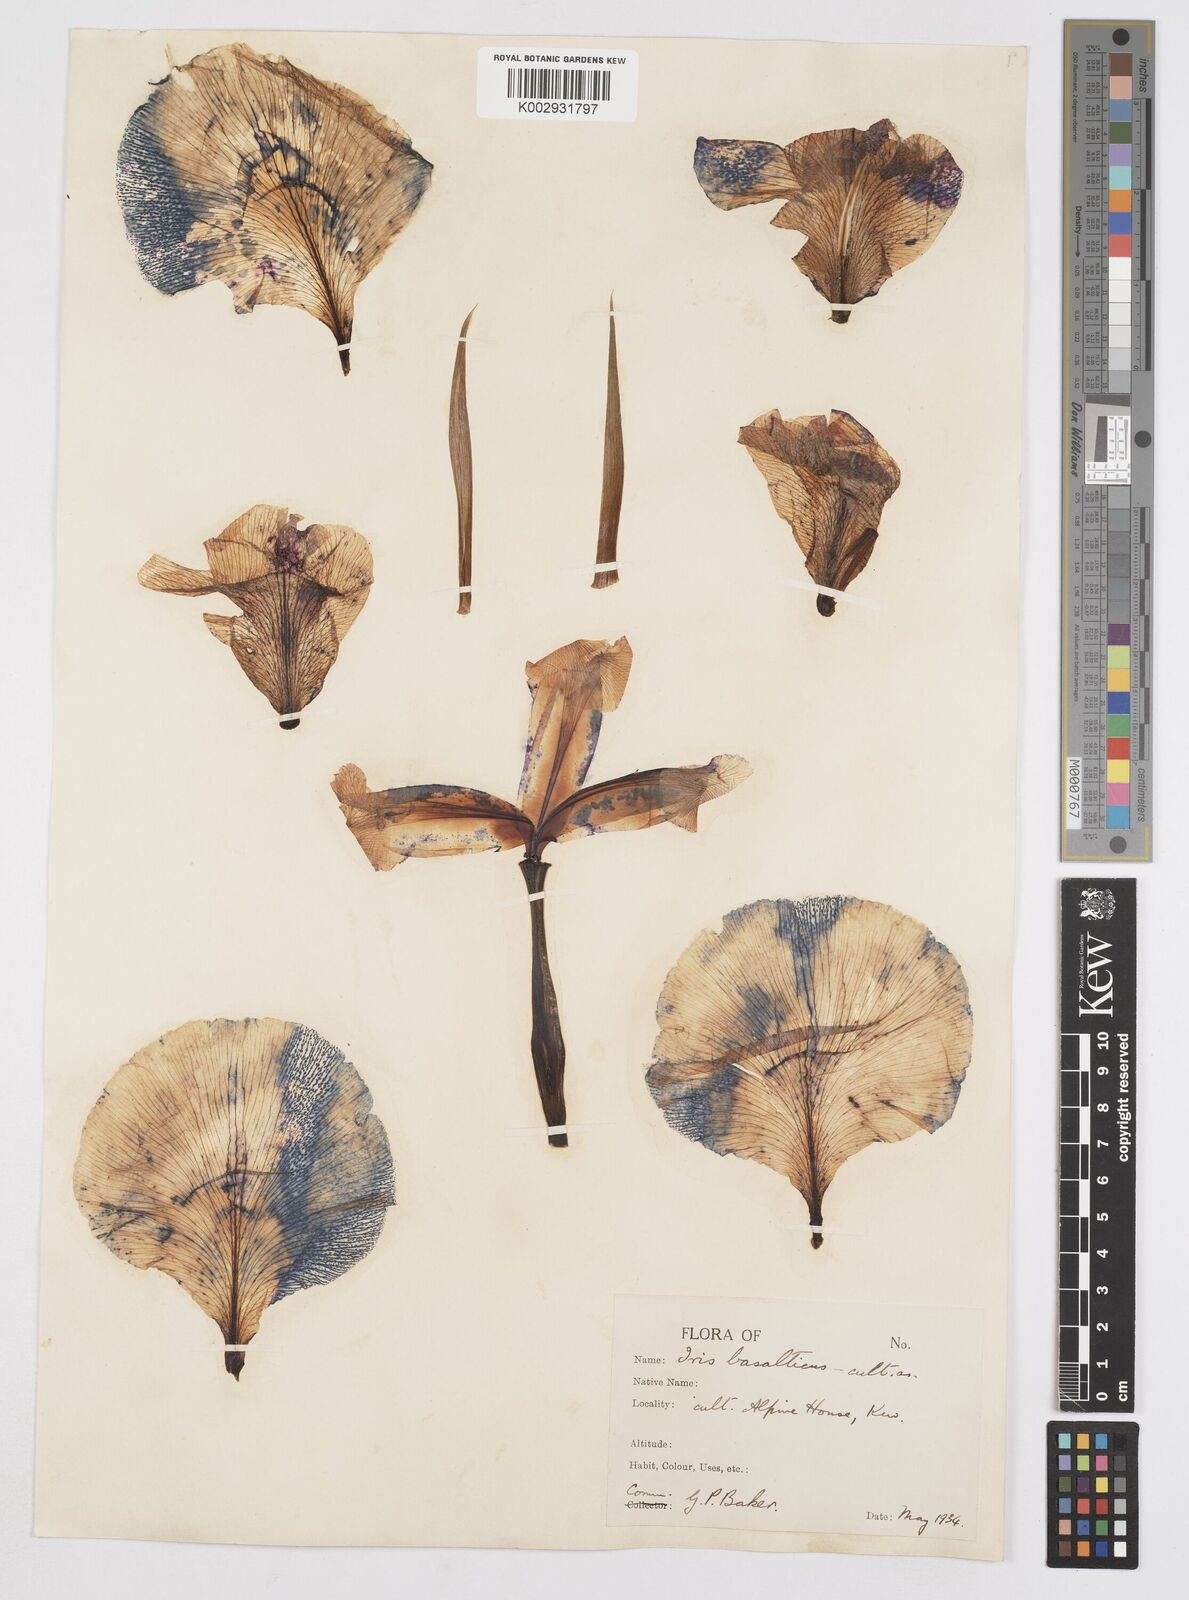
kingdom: Plantae
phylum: Tracheophyta
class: Liliopsida
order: Asparagales
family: Iridaceae
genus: Iris
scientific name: Iris basaltica
